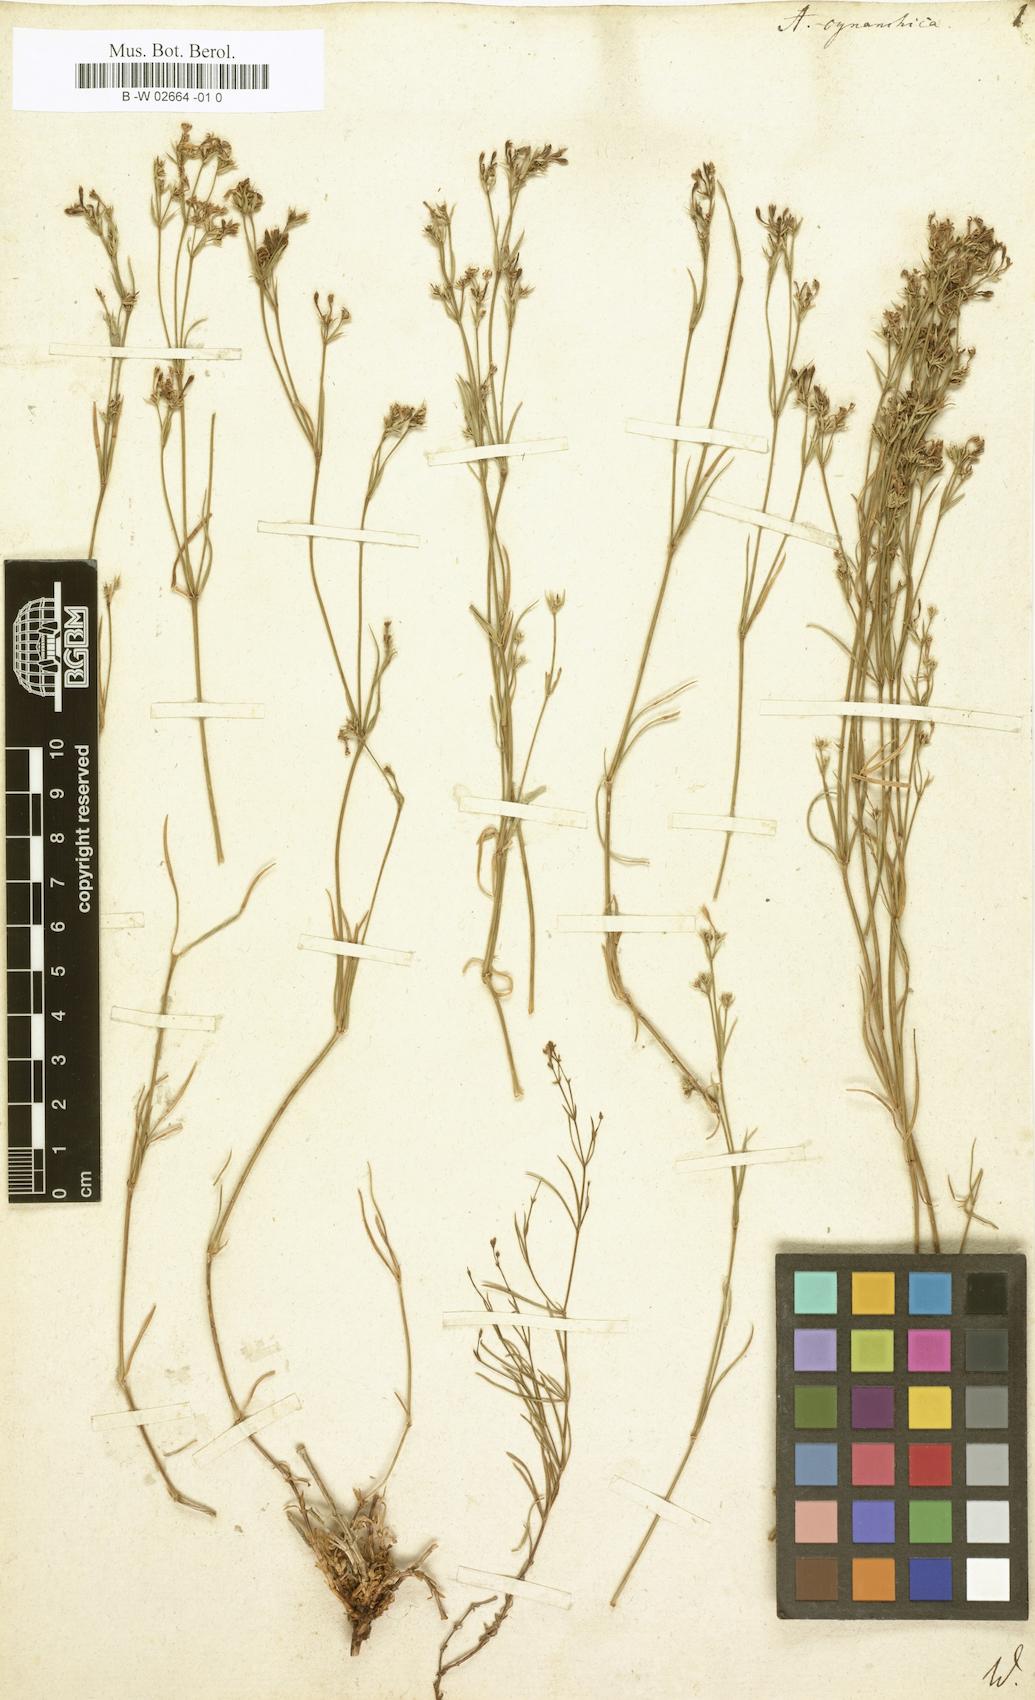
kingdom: Plantae
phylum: Tracheophyta
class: Magnoliopsida
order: Gentianales
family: Rubiaceae
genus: Cynanchica
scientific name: Cynanchica pyrenaica
